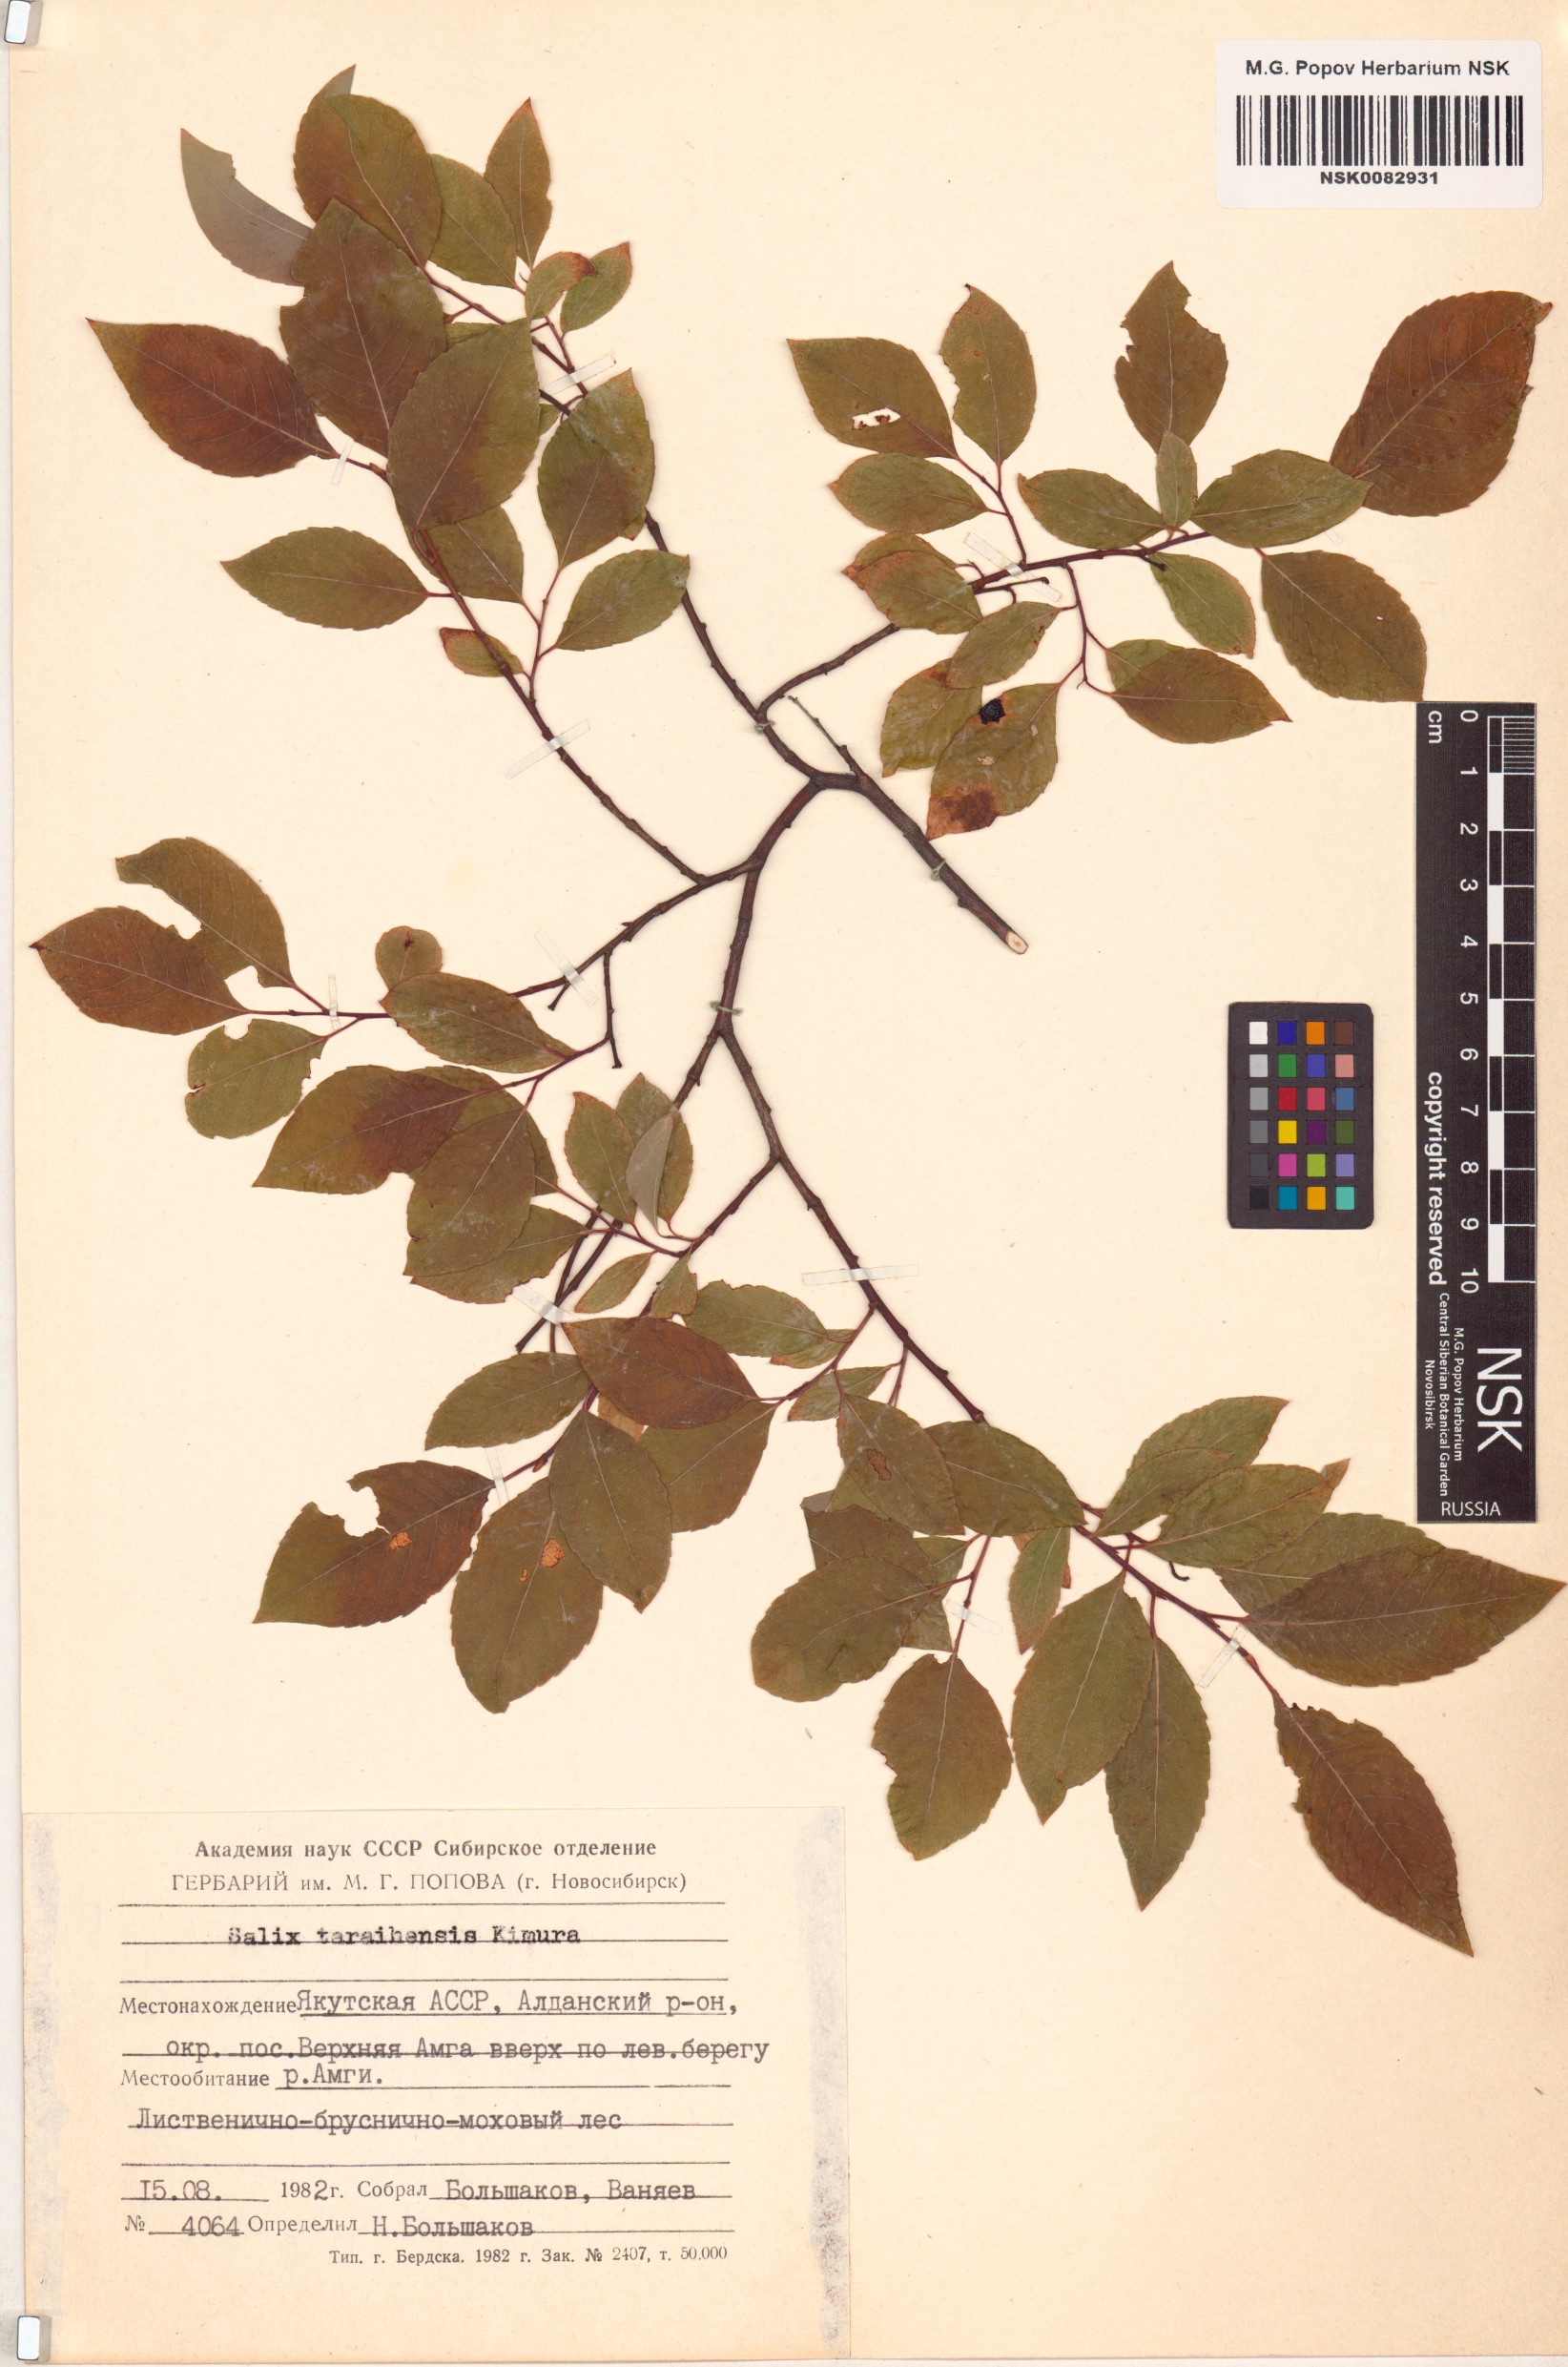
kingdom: Plantae
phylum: Tracheophyta
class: Magnoliopsida
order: Malpighiales
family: Salicaceae
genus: Salix
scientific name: Salix taraikensis
